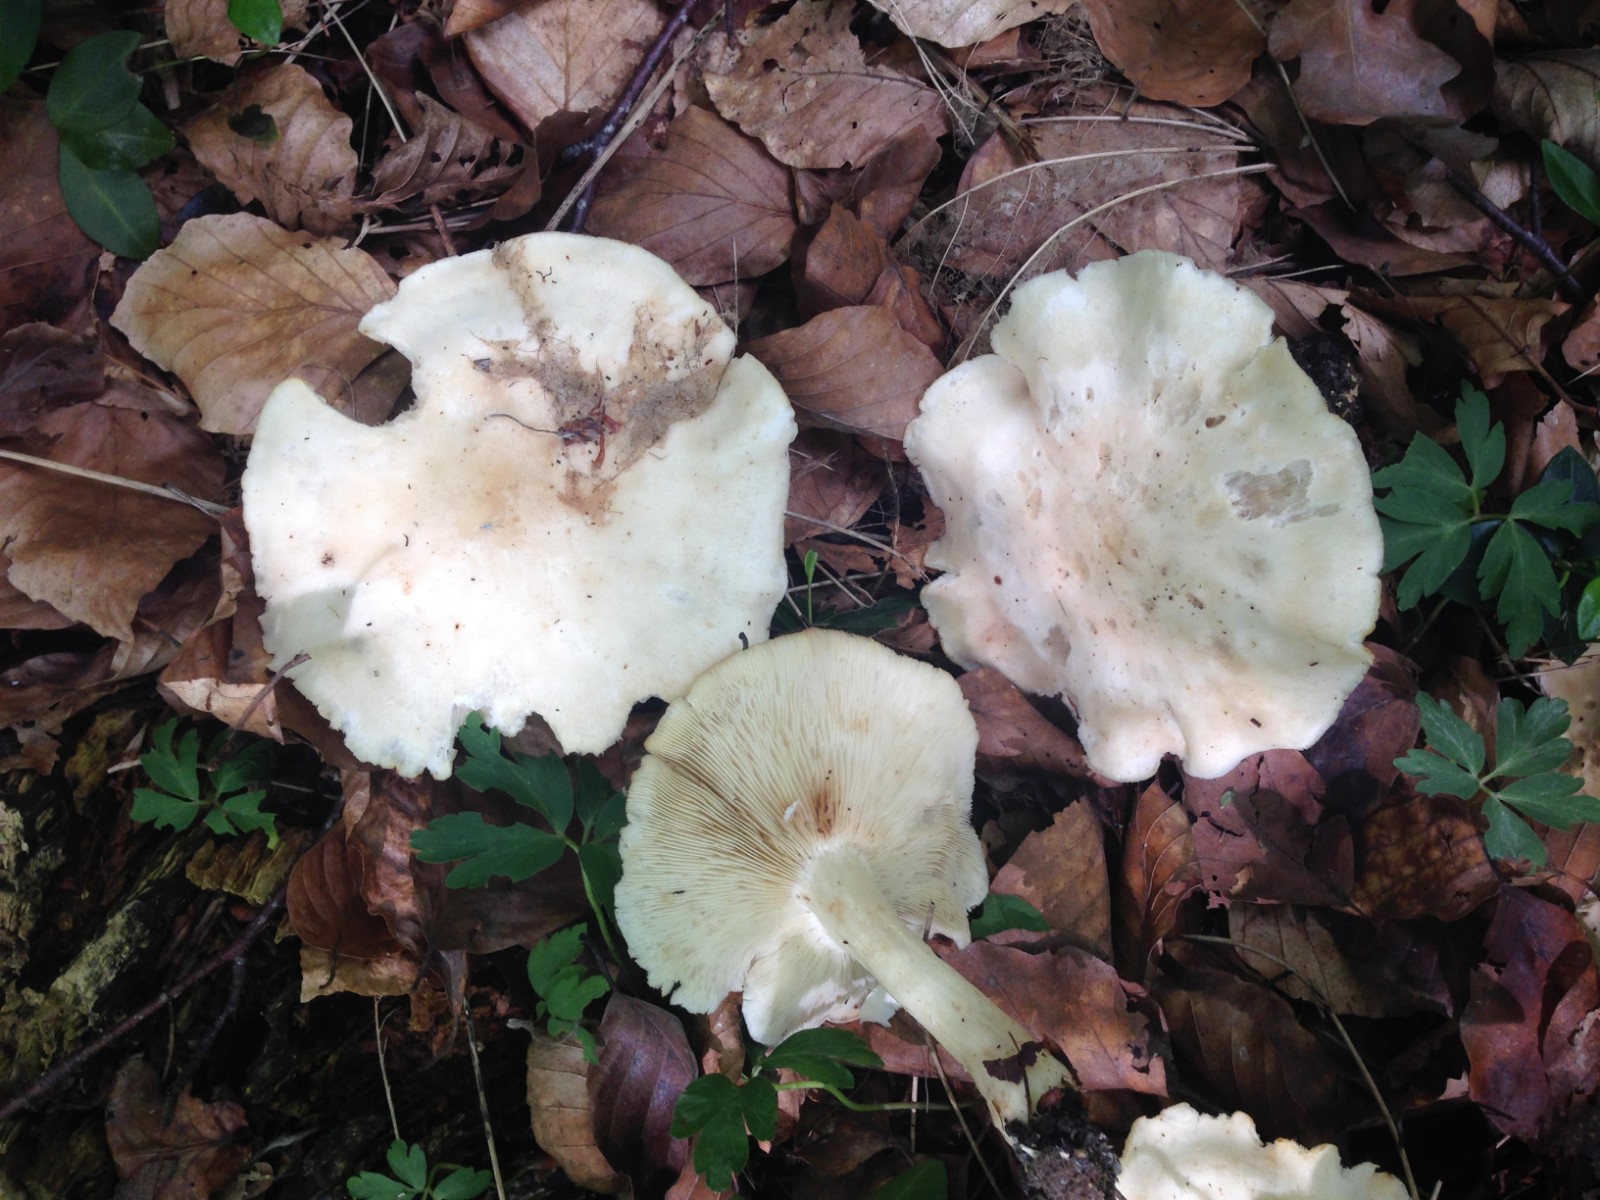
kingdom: Fungi
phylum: Basidiomycota
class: Agaricomycetes
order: Agaricales
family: Lyophyllaceae
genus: Calocybe
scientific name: Calocybe gambosa
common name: vårmusseron
